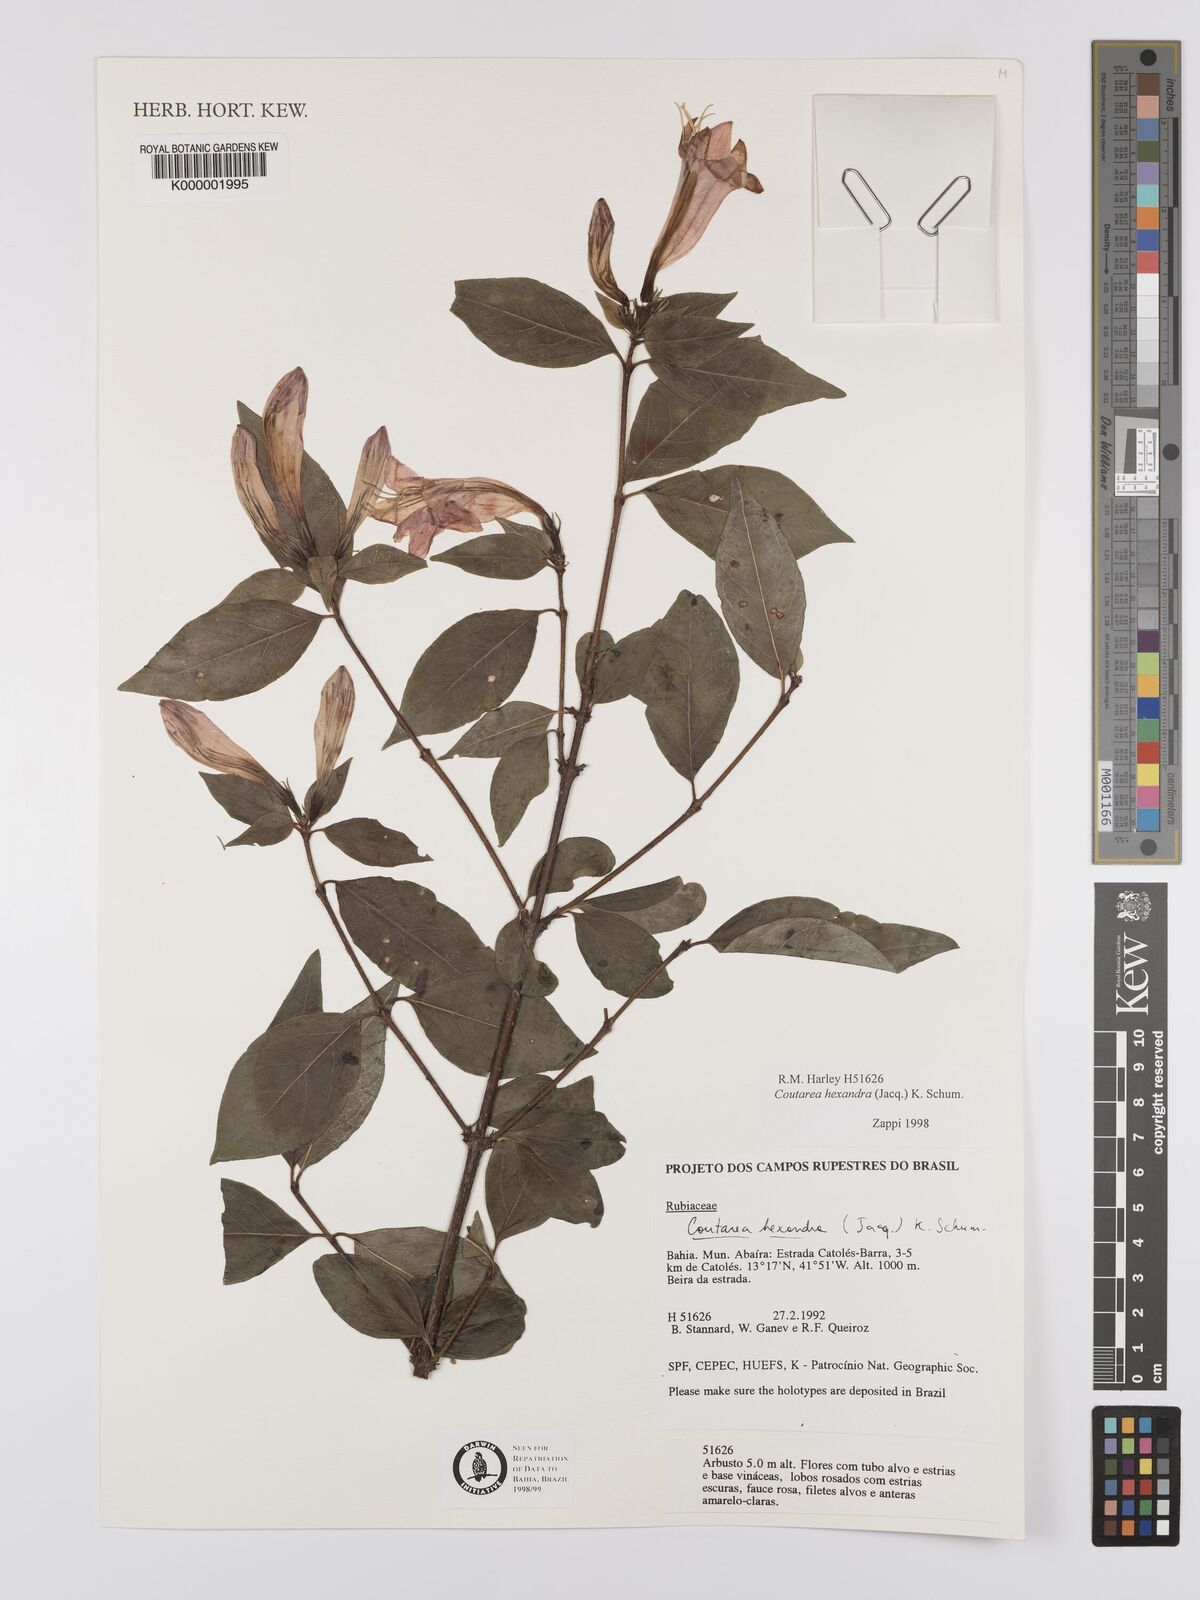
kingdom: Plantae
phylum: Tracheophyta
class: Magnoliopsida
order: Gentianales
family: Rubiaceae
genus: Coutarea
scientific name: Coutarea hexandra
